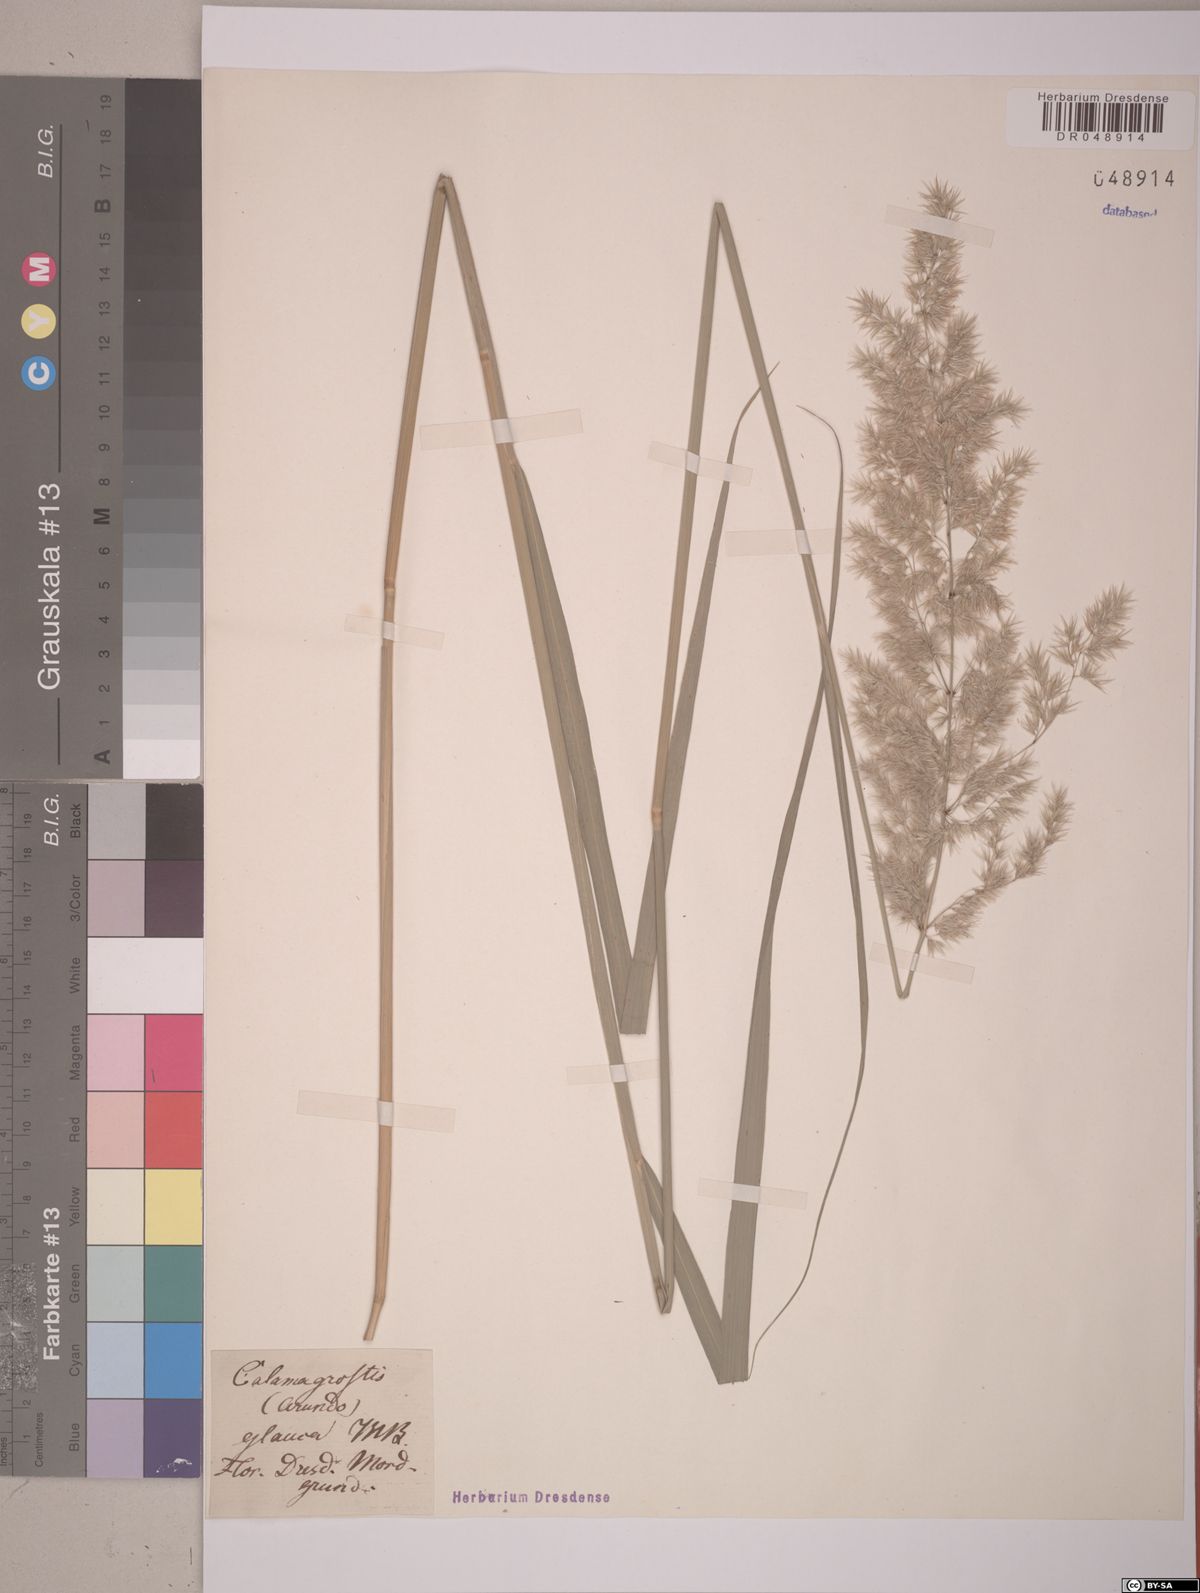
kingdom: Plantae
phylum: Tracheophyta
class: Liliopsida
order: Poales
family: Poaceae
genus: Calamagrostis
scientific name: Calamagrostis pseudophragmites
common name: Coastal small-reed
